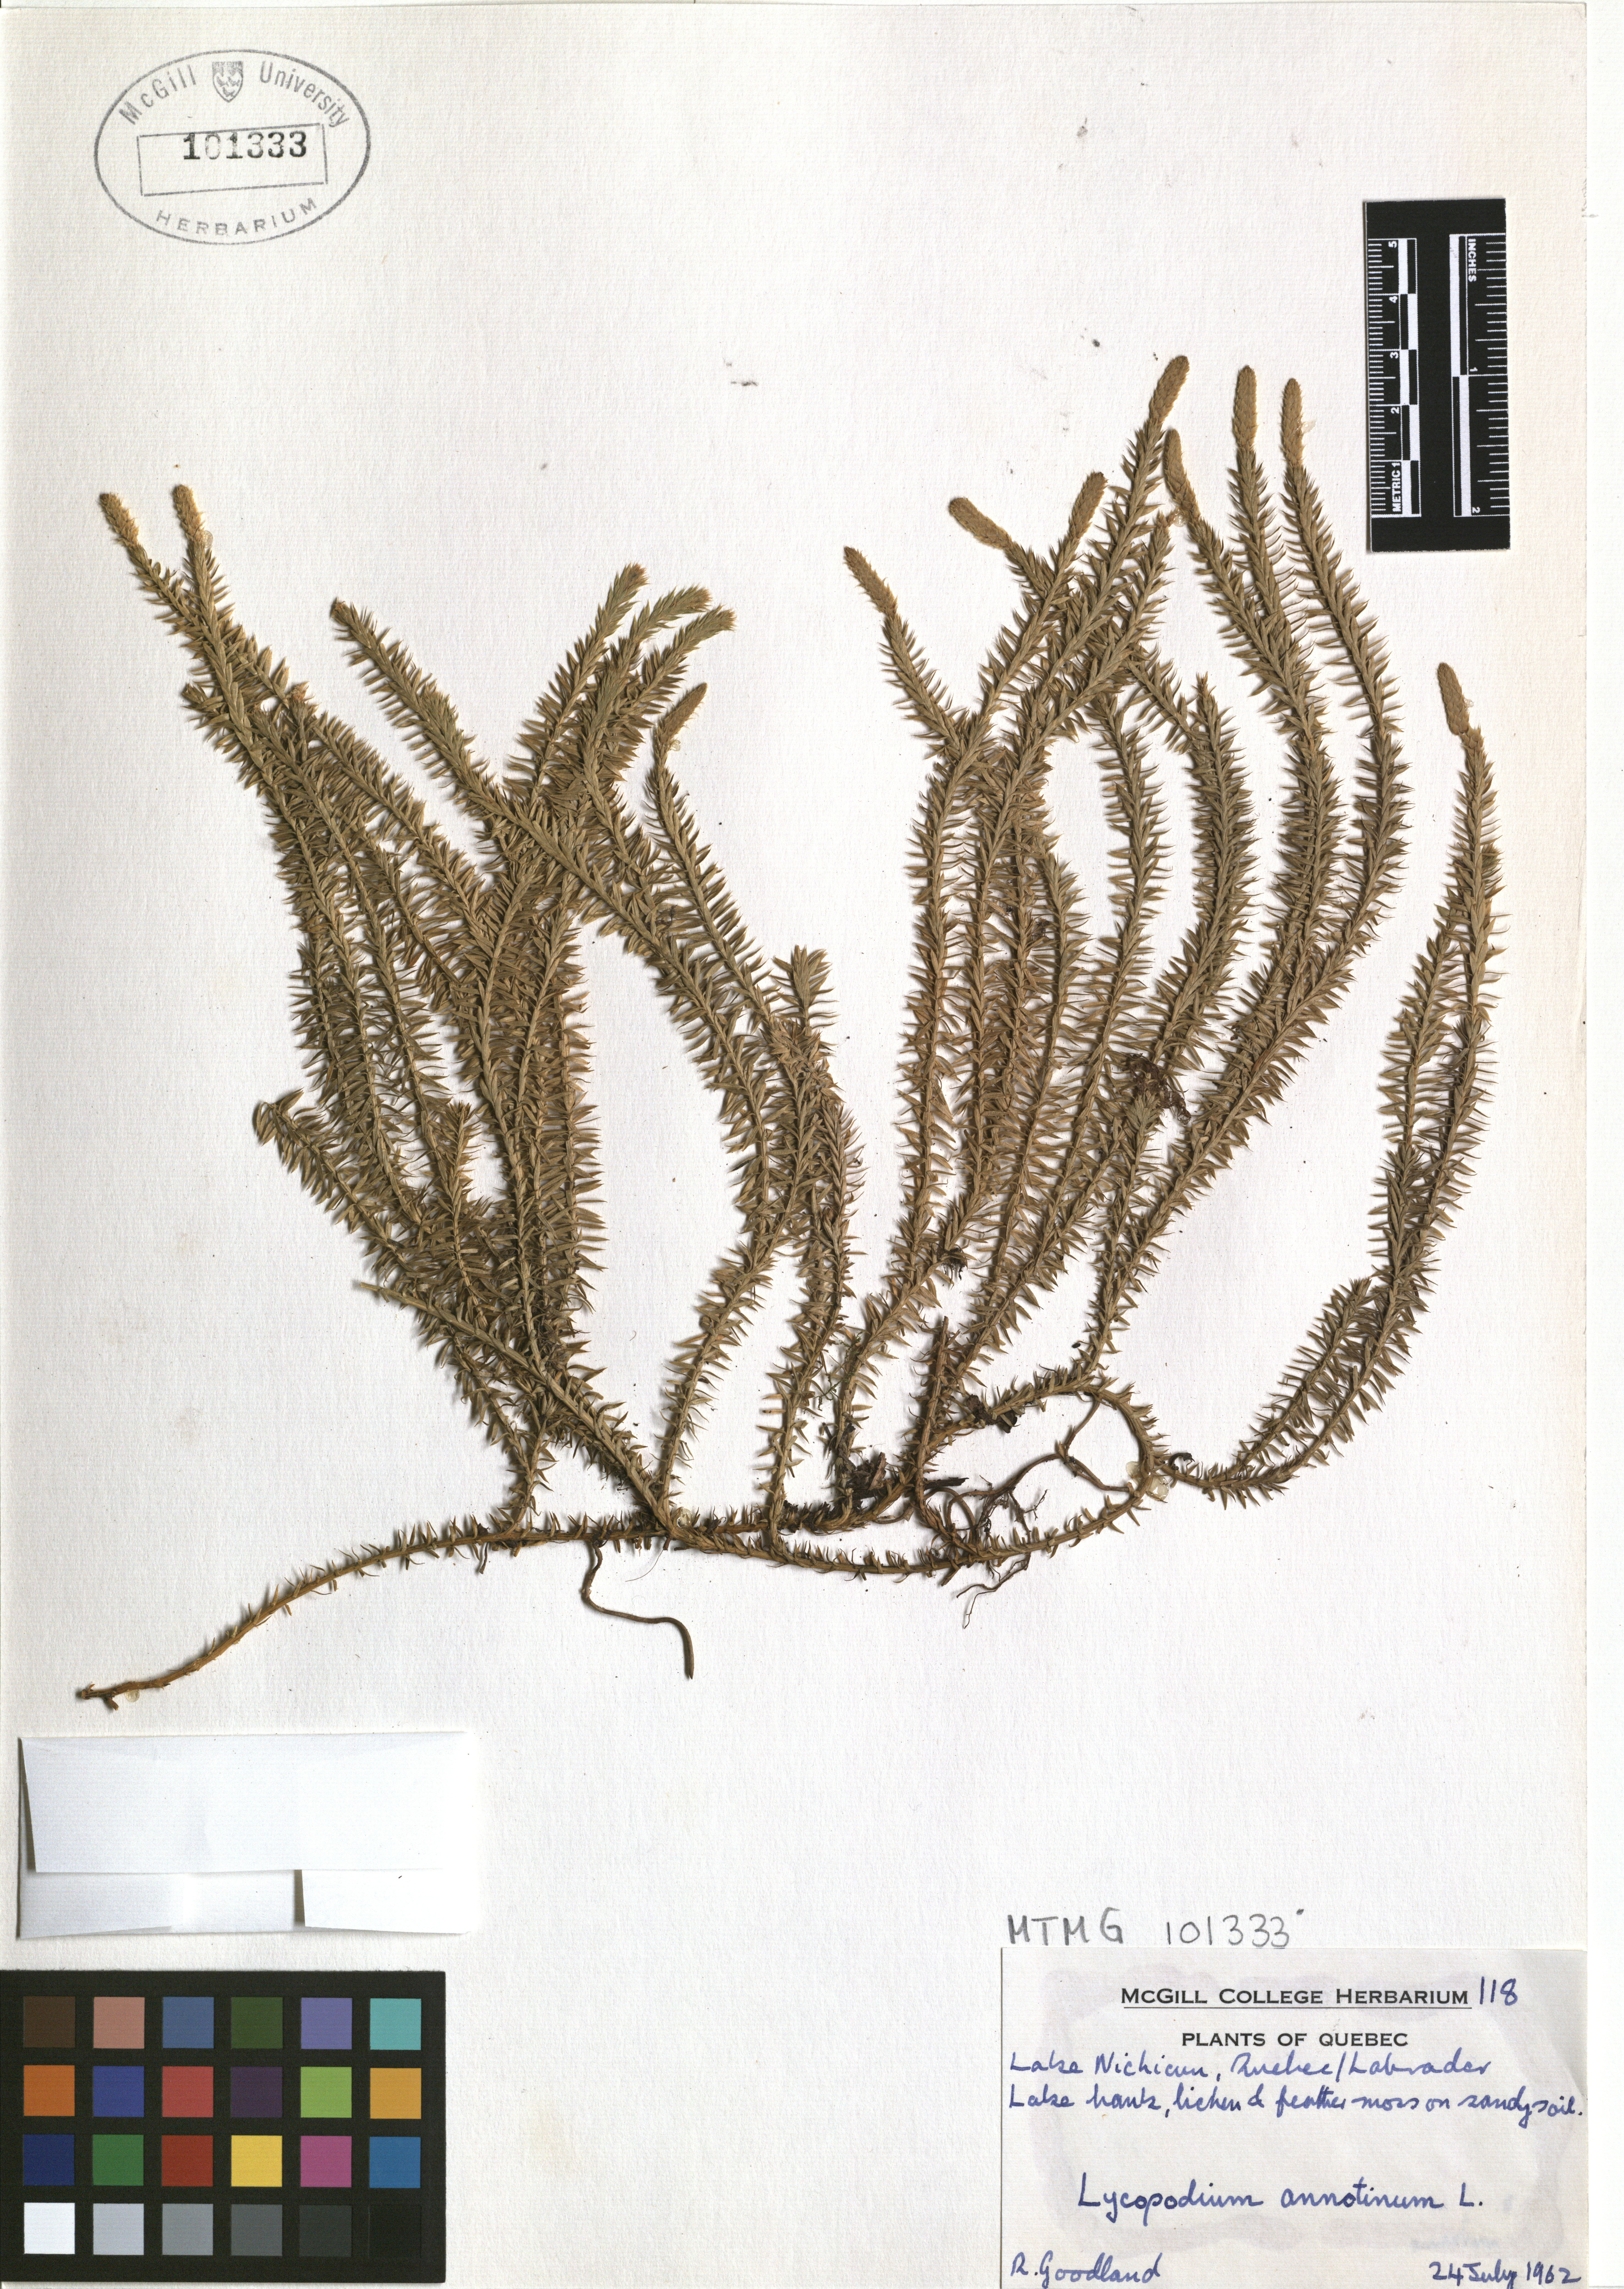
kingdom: Plantae
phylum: Tracheophyta
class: Lycopodiopsida
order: Lycopodiales
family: Lycopodiaceae
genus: Spinulum
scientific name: Spinulum annotinum
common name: Interrupted club-moss
